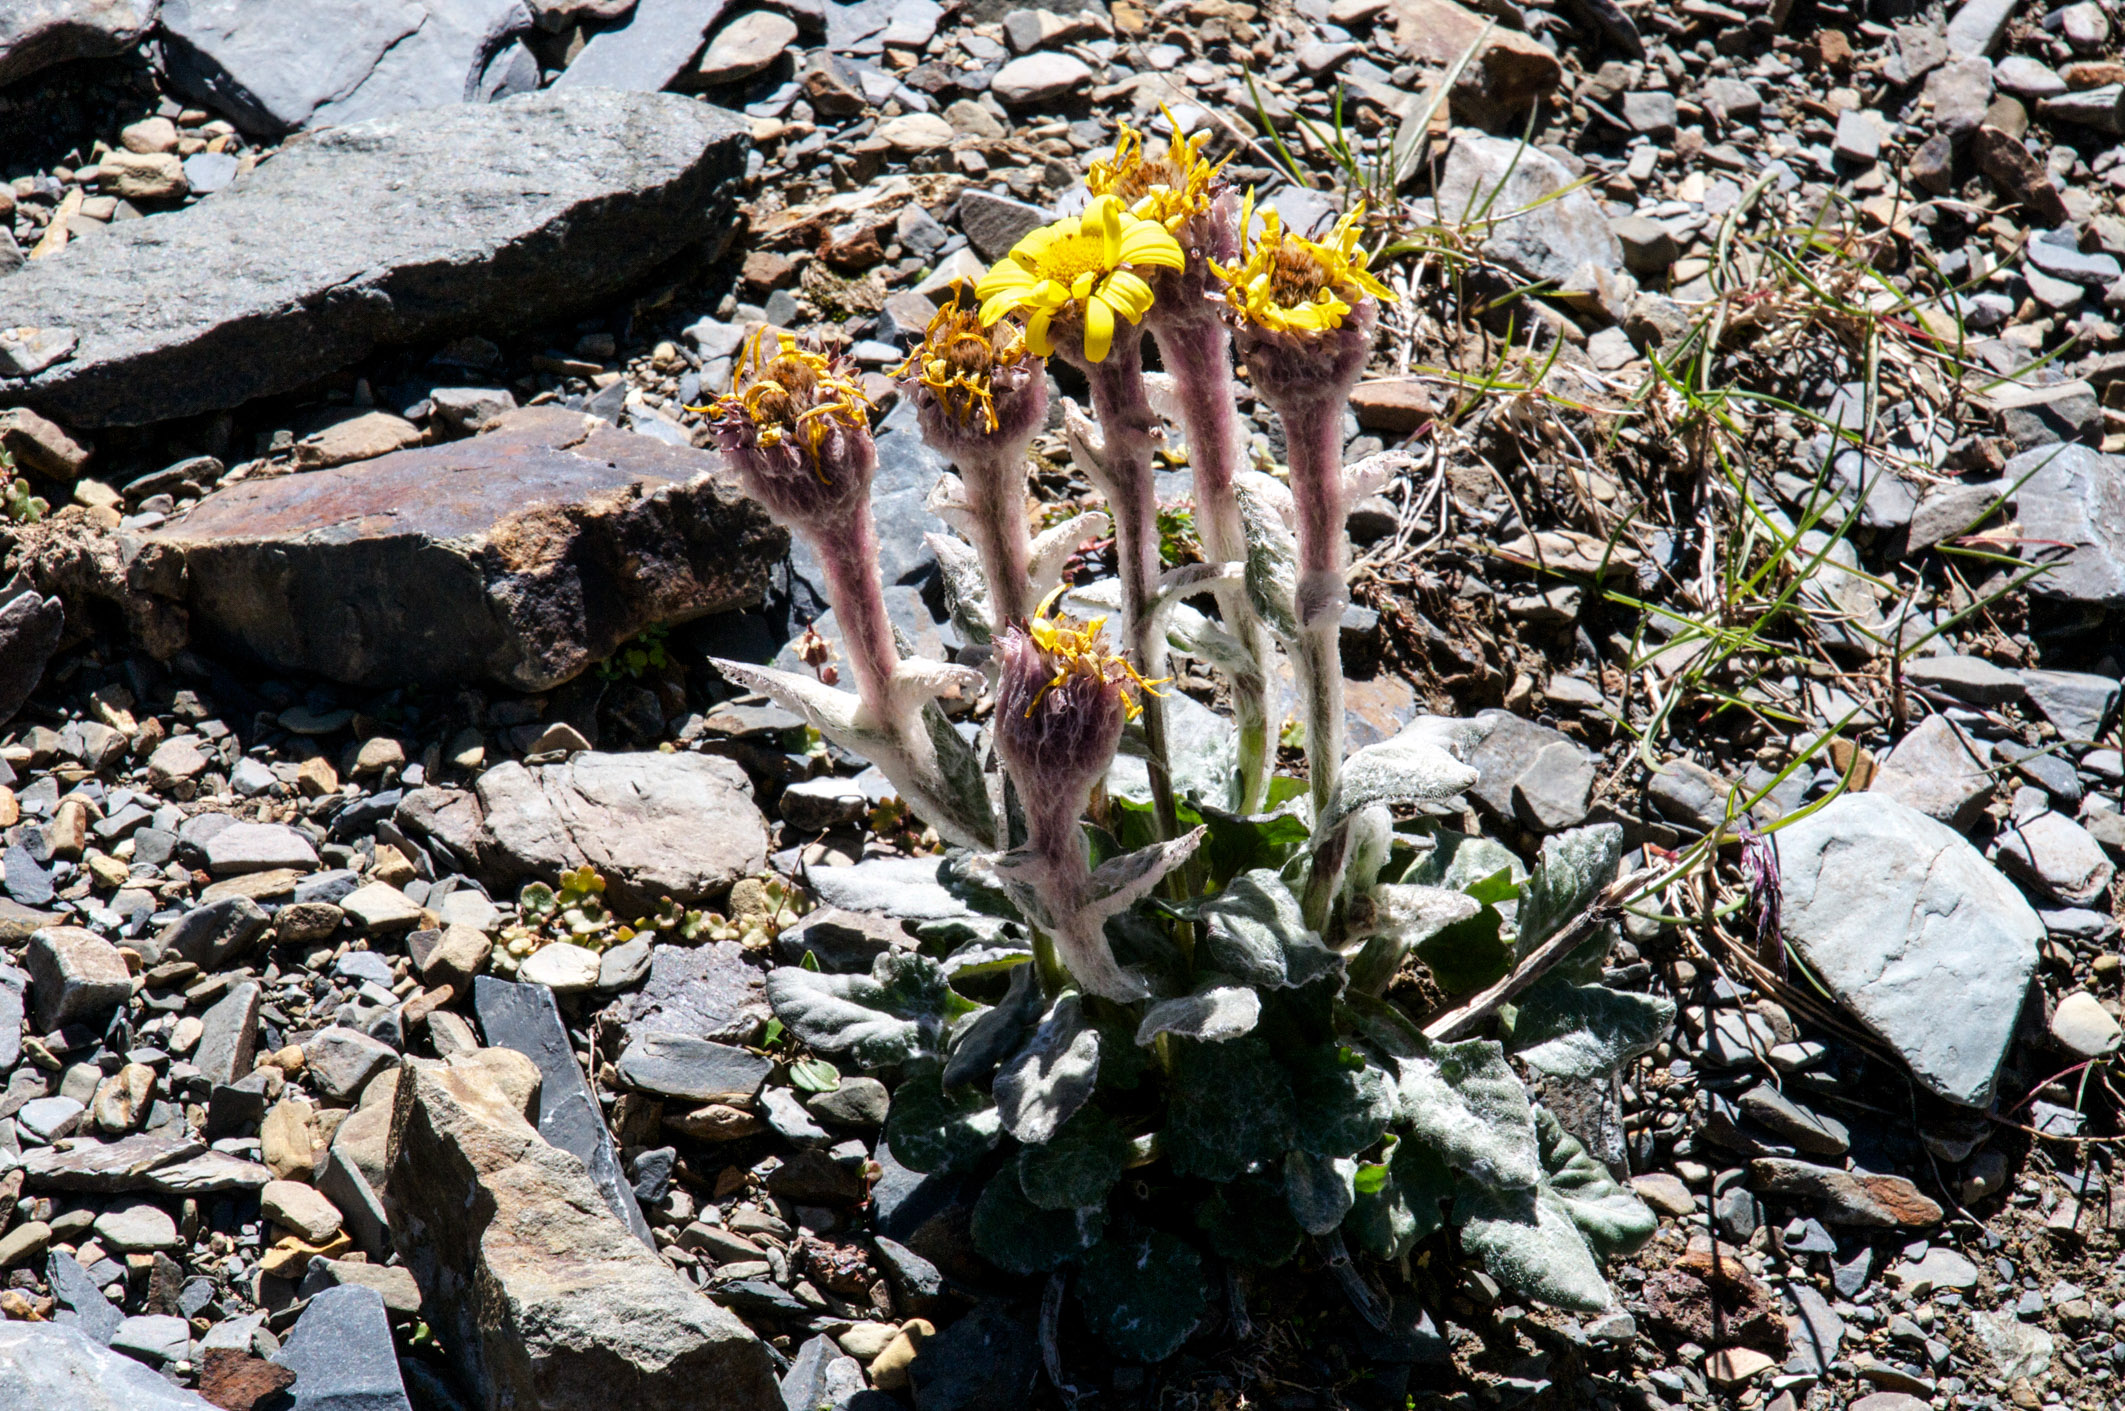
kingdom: Plantae
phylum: Tracheophyta
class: Magnoliopsida
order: Asterales
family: Asteraceae
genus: Tephroseris
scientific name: Tephroseris turczaninovii
